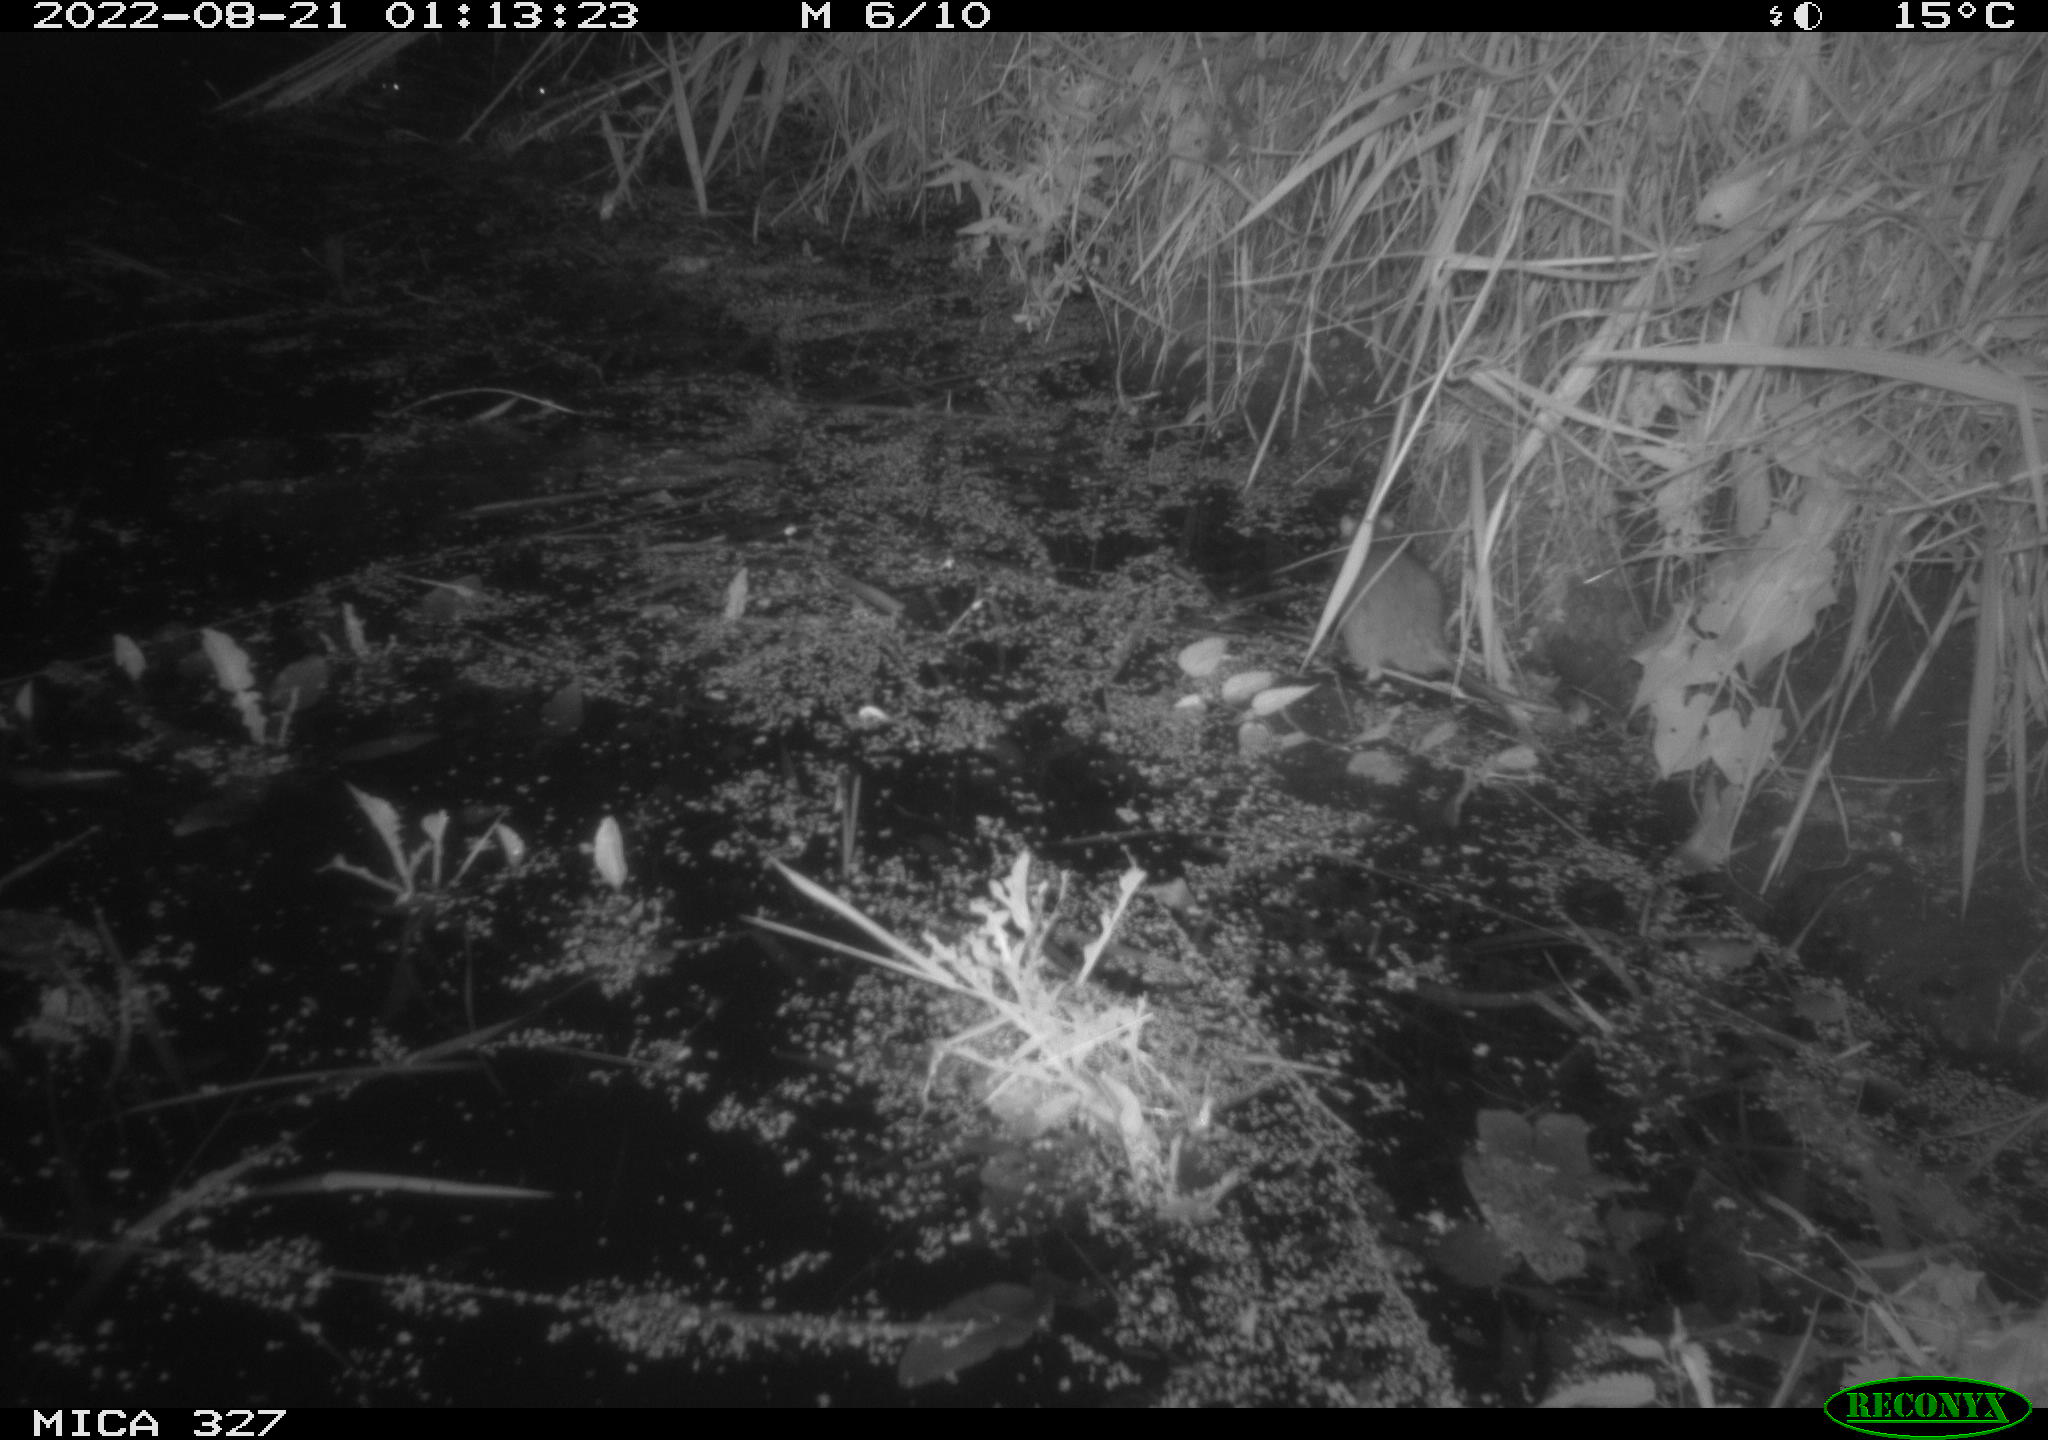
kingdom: Animalia
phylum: Chordata
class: Mammalia
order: Rodentia
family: Muridae
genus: Rattus
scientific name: Rattus norvegicus
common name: Brown rat
